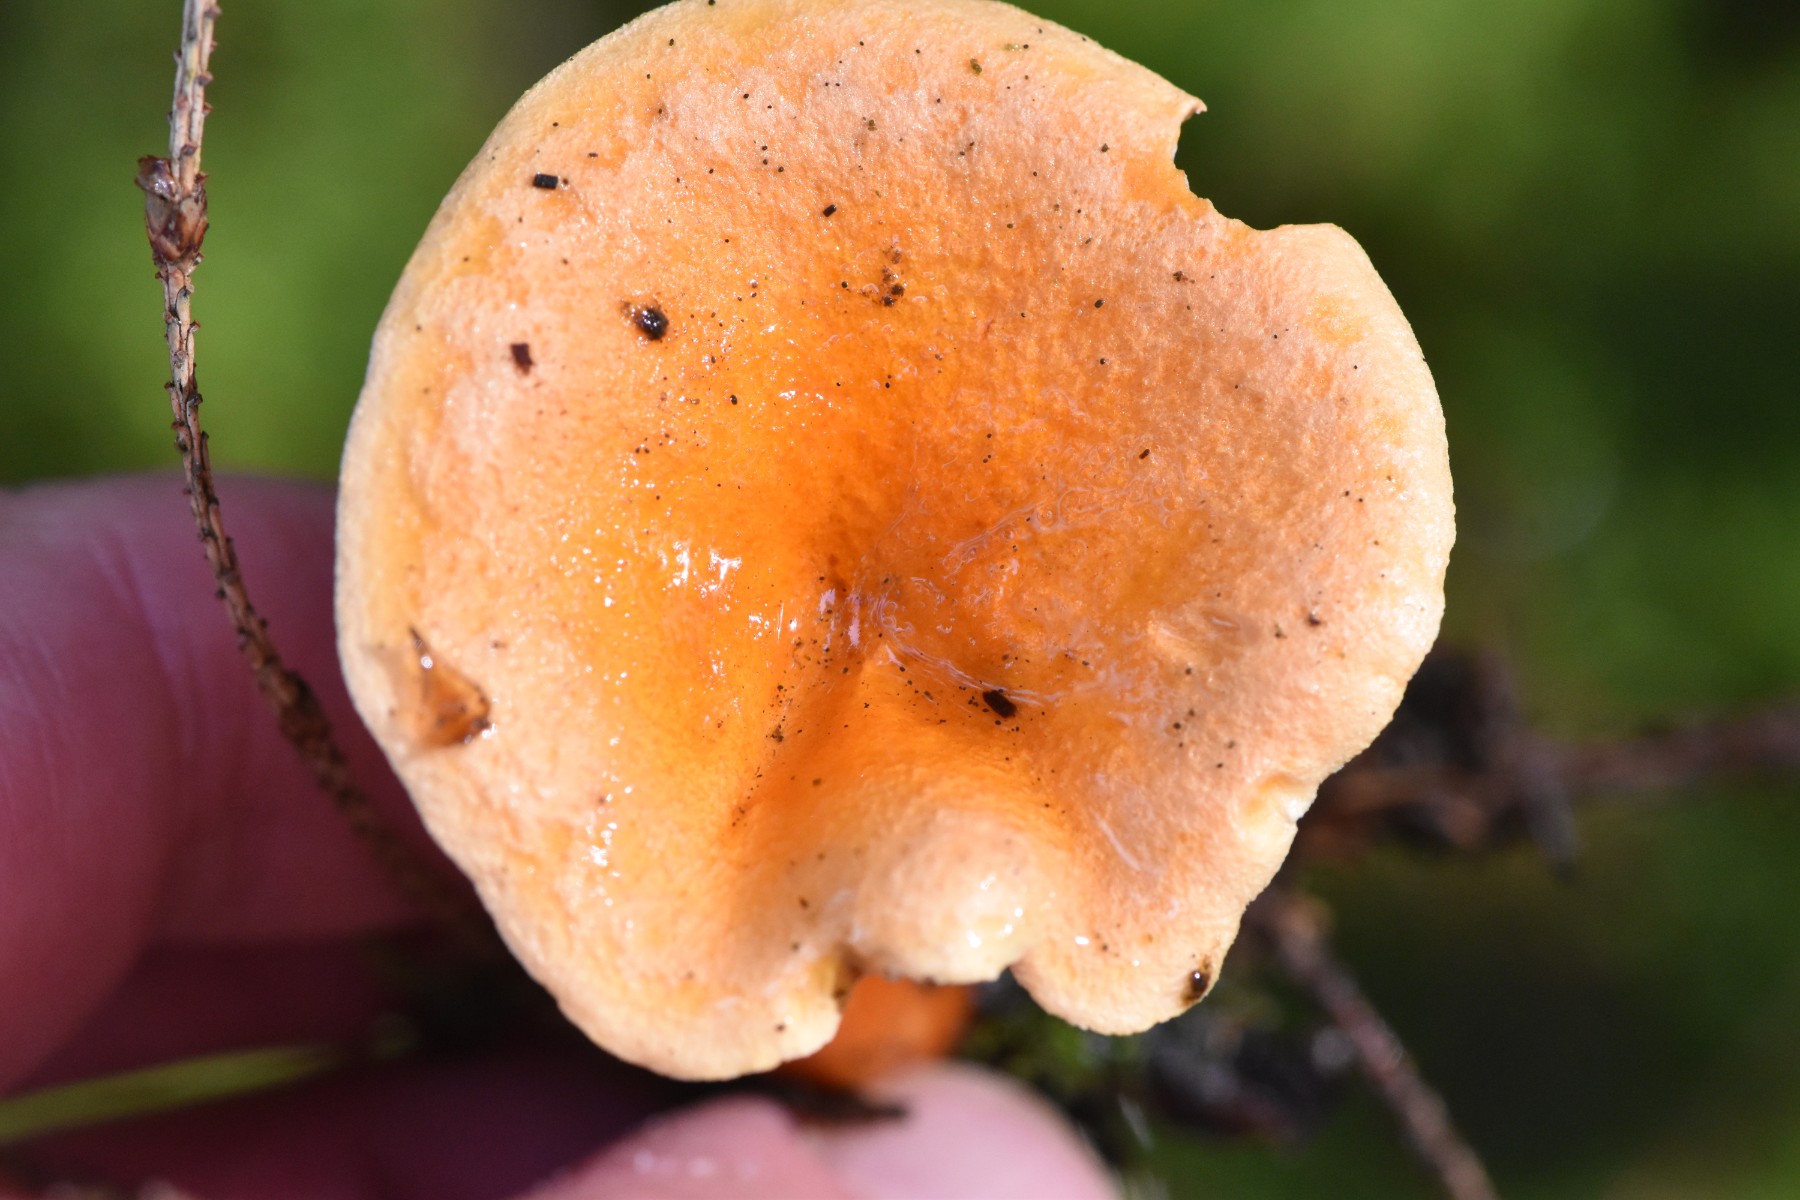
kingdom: Fungi
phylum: Basidiomycota
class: Agaricomycetes
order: Boletales
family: Hygrophoropsidaceae
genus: Hygrophoropsis
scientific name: Hygrophoropsis aurantiaca
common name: almindelig orangekantarel
